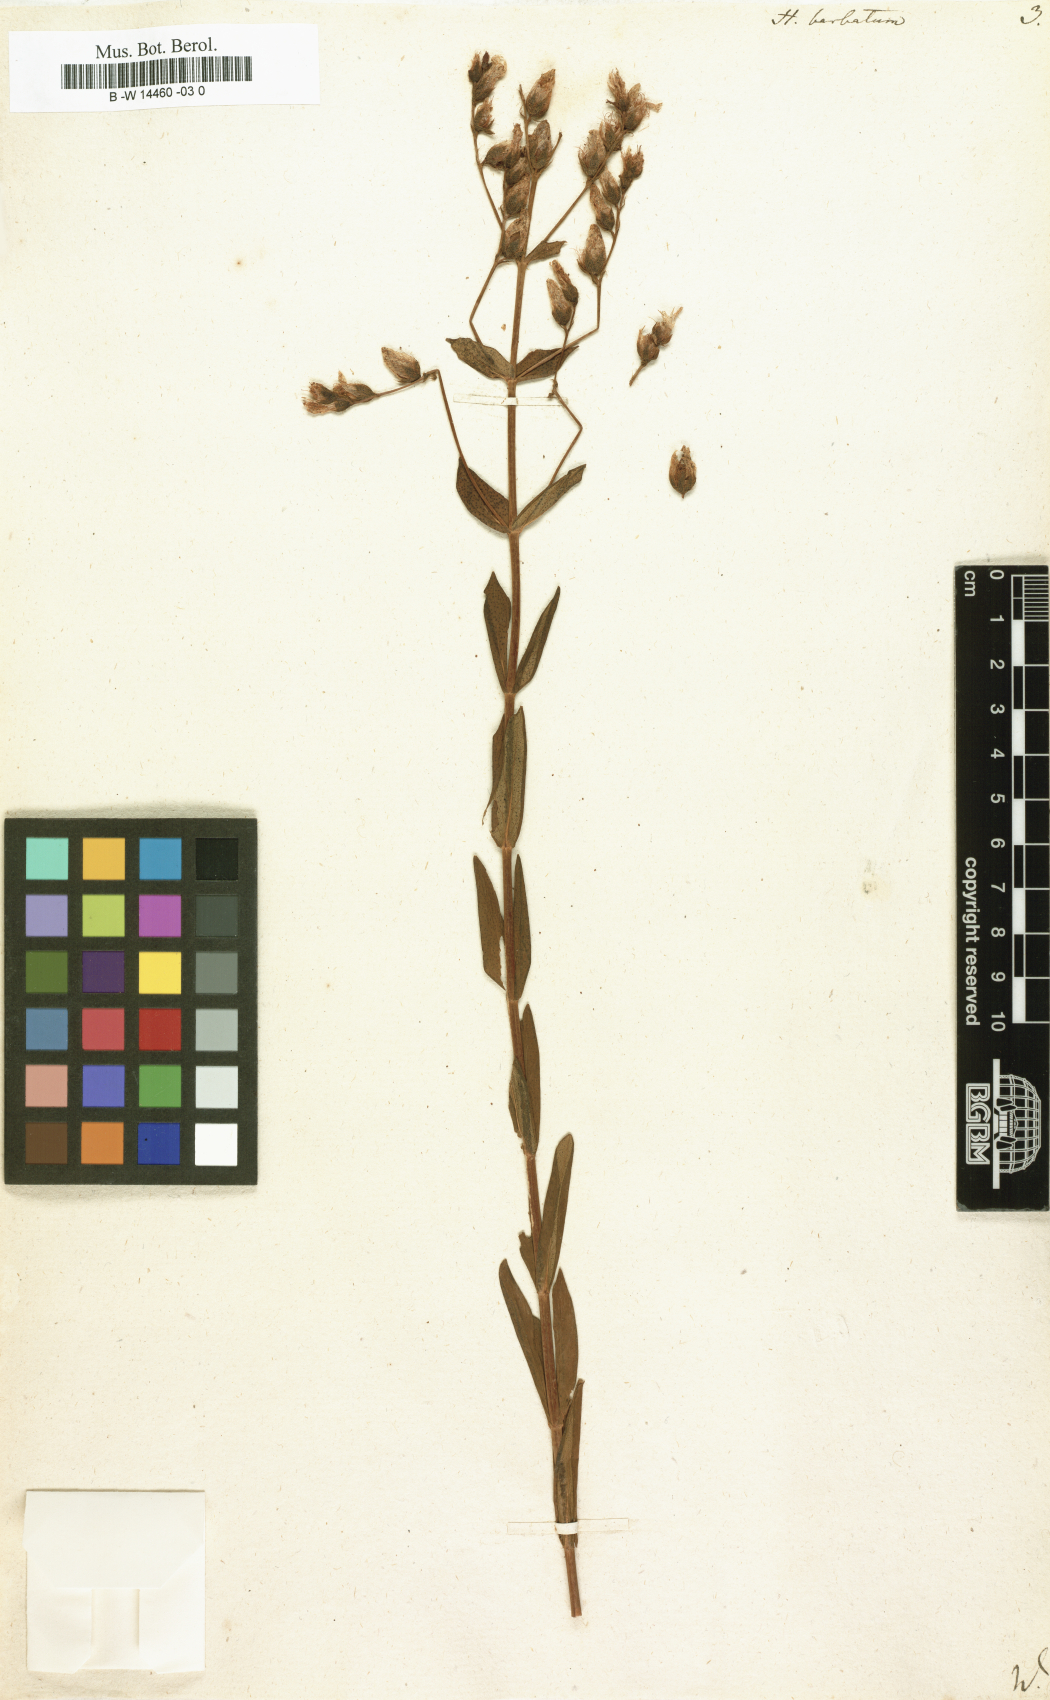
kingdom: Plantae
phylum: Tracheophyta
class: Magnoliopsida
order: Malpighiales
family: Hypericaceae
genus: Hypericum
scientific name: Hypericum barbatum
